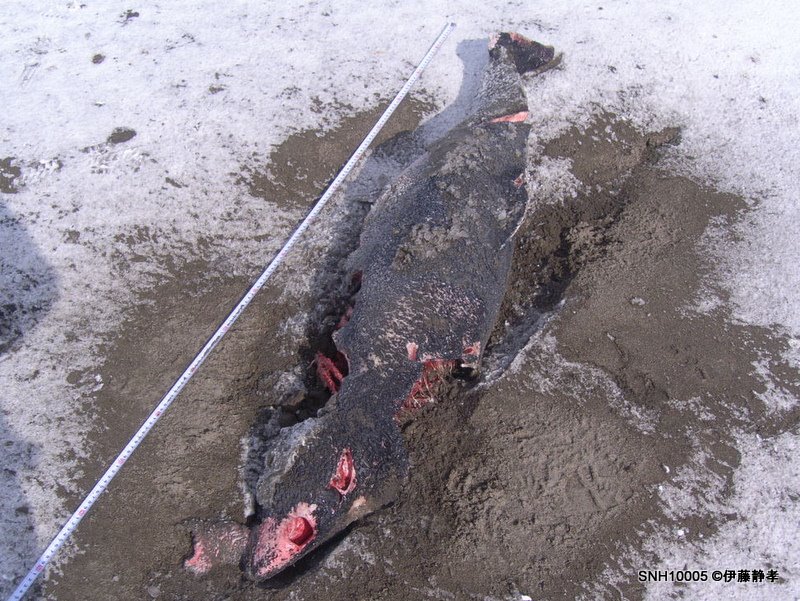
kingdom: Animalia
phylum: Chordata
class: Mammalia
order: Cetacea
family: Phocoenidae
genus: Phocoena
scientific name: Phocoena phocoena
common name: Harbour porpoise
